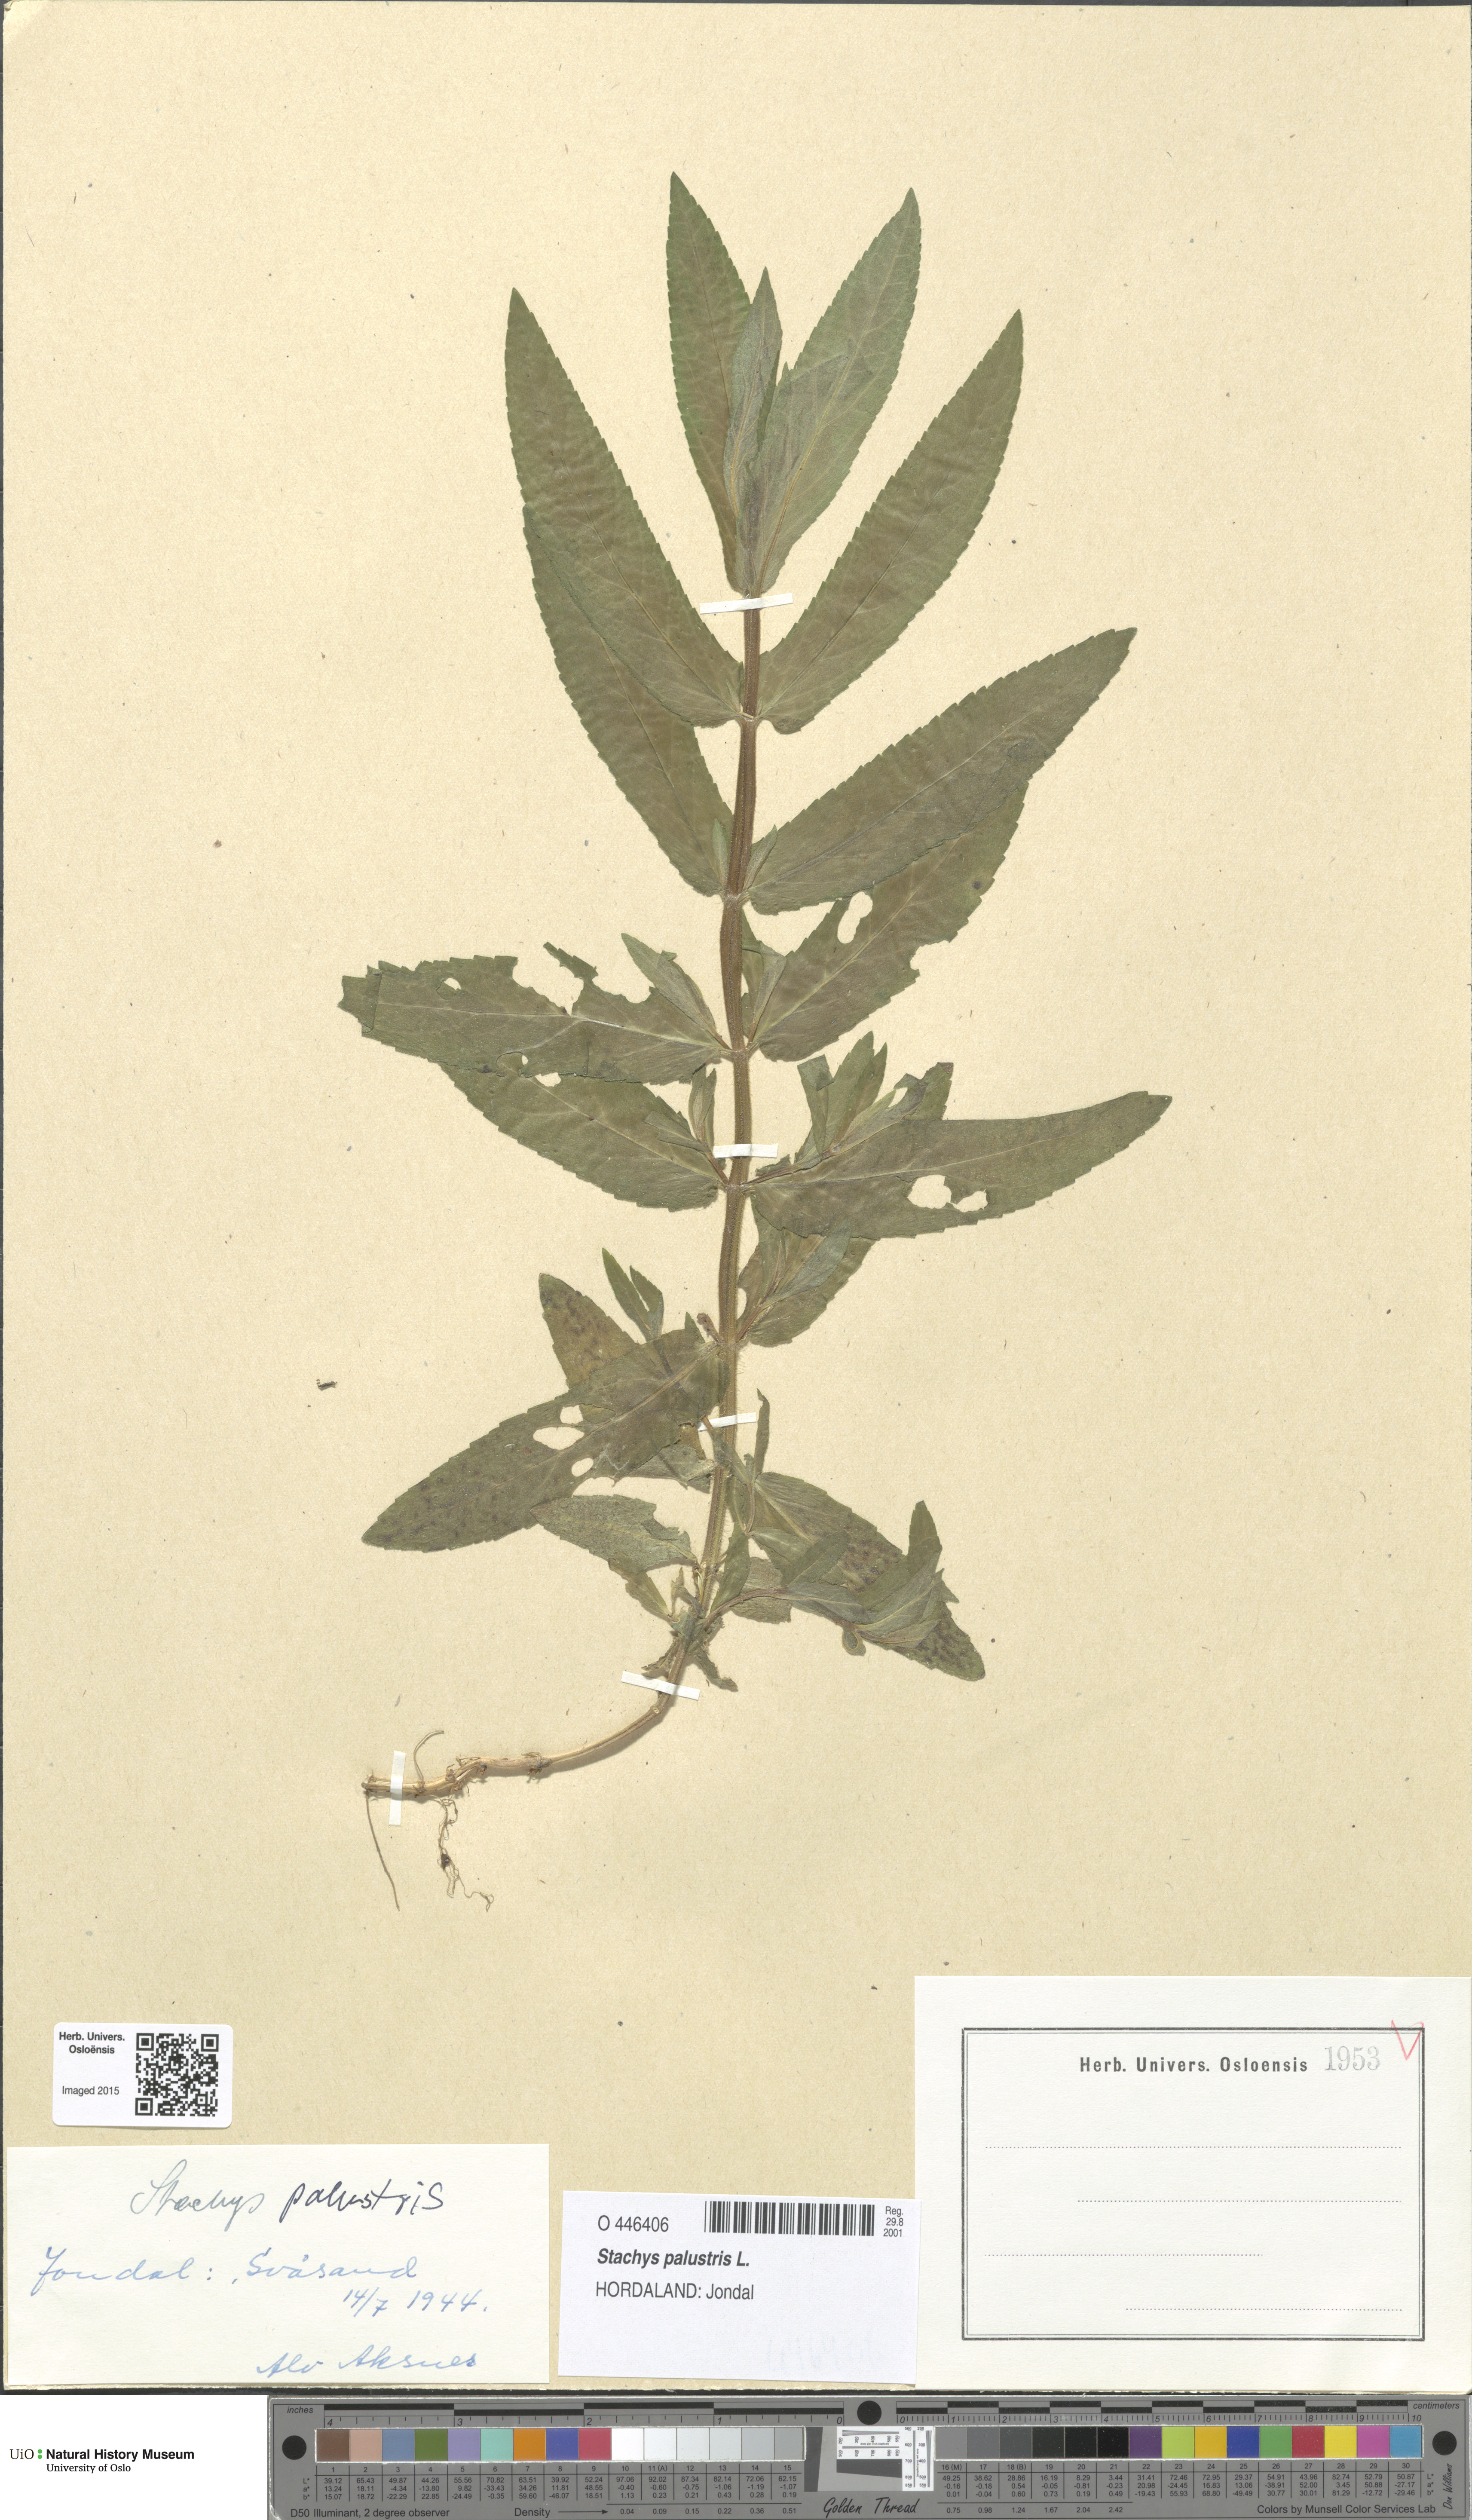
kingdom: Plantae
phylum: Tracheophyta
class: Magnoliopsida
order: Lamiales
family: Lamiaceae
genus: Stachys
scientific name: Stachys palustris
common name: Marsh woundwort
